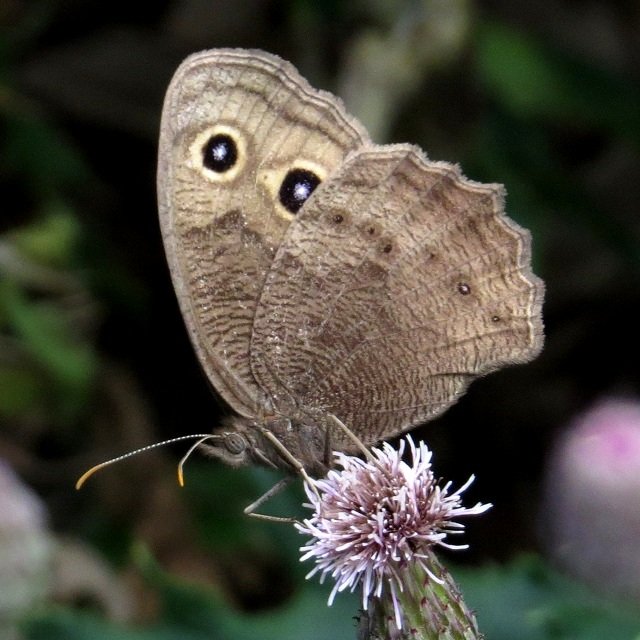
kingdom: Animalia
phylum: Arthropoda
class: Insecta
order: Lepidoptera
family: Nymphalidae
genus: Cercyonis
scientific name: Cercyonis pegala
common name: Common Wood-Nymph
